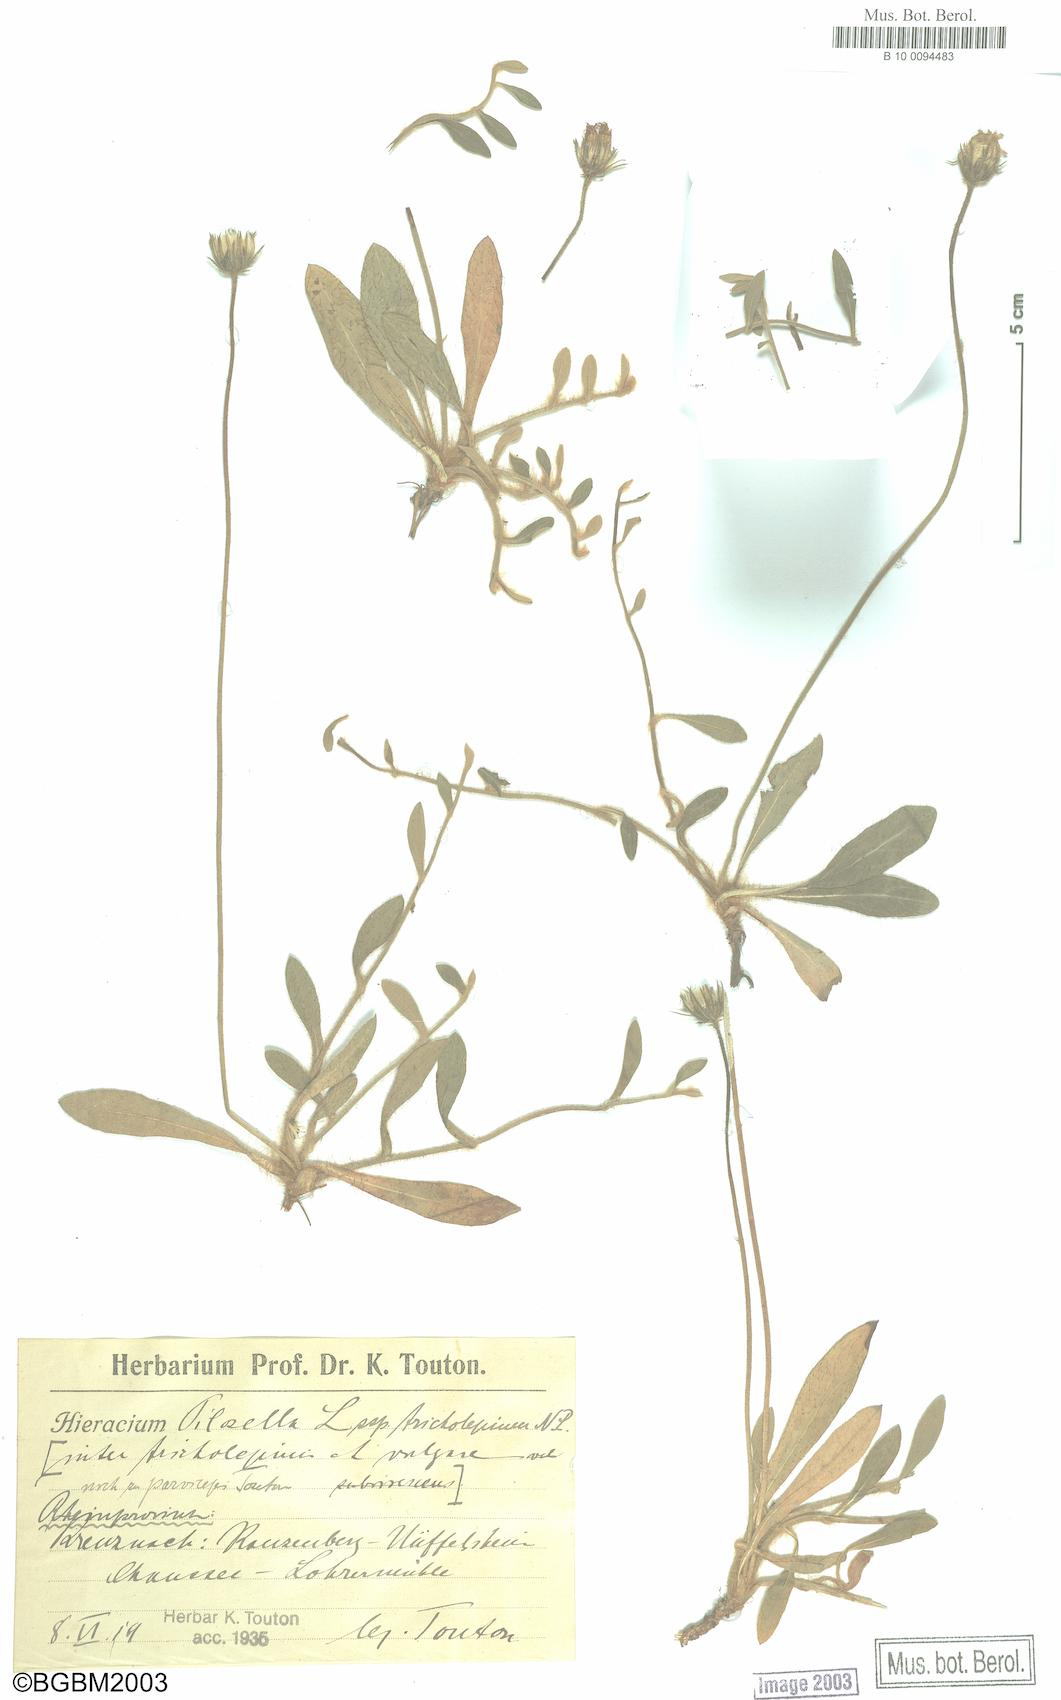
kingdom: Plantae
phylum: Tracheophyta
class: Magnoliopsida
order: Asterales
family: Asteraceae
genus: Pilosella
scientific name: Pilosella officinarum
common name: Mouse-ear hawkweed
